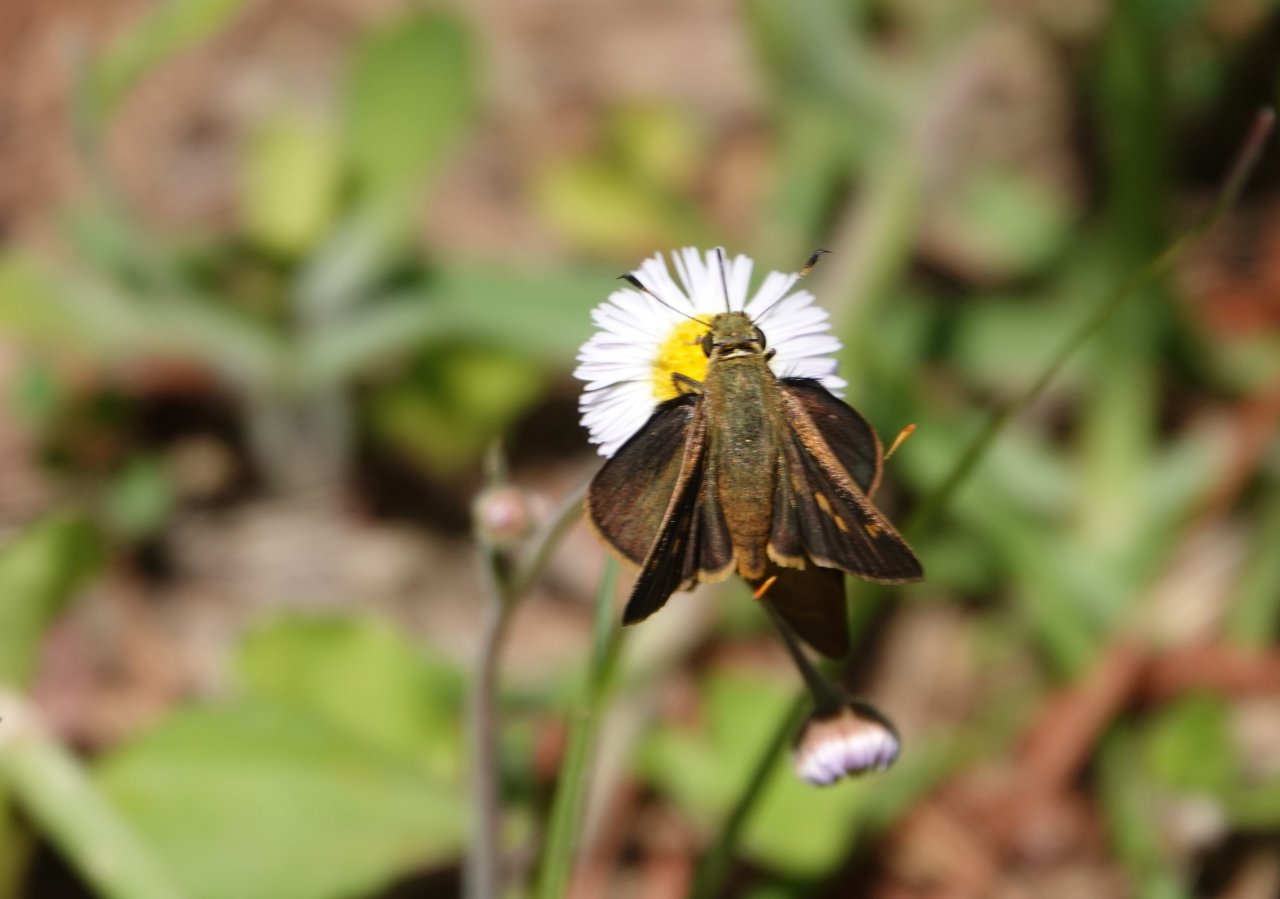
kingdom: Animalia
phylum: Arthropoda
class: Insecta
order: Lepidoptera
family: Hesperiidae
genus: Polites
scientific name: Polites themistocles
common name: Tawny-edged Skipper
